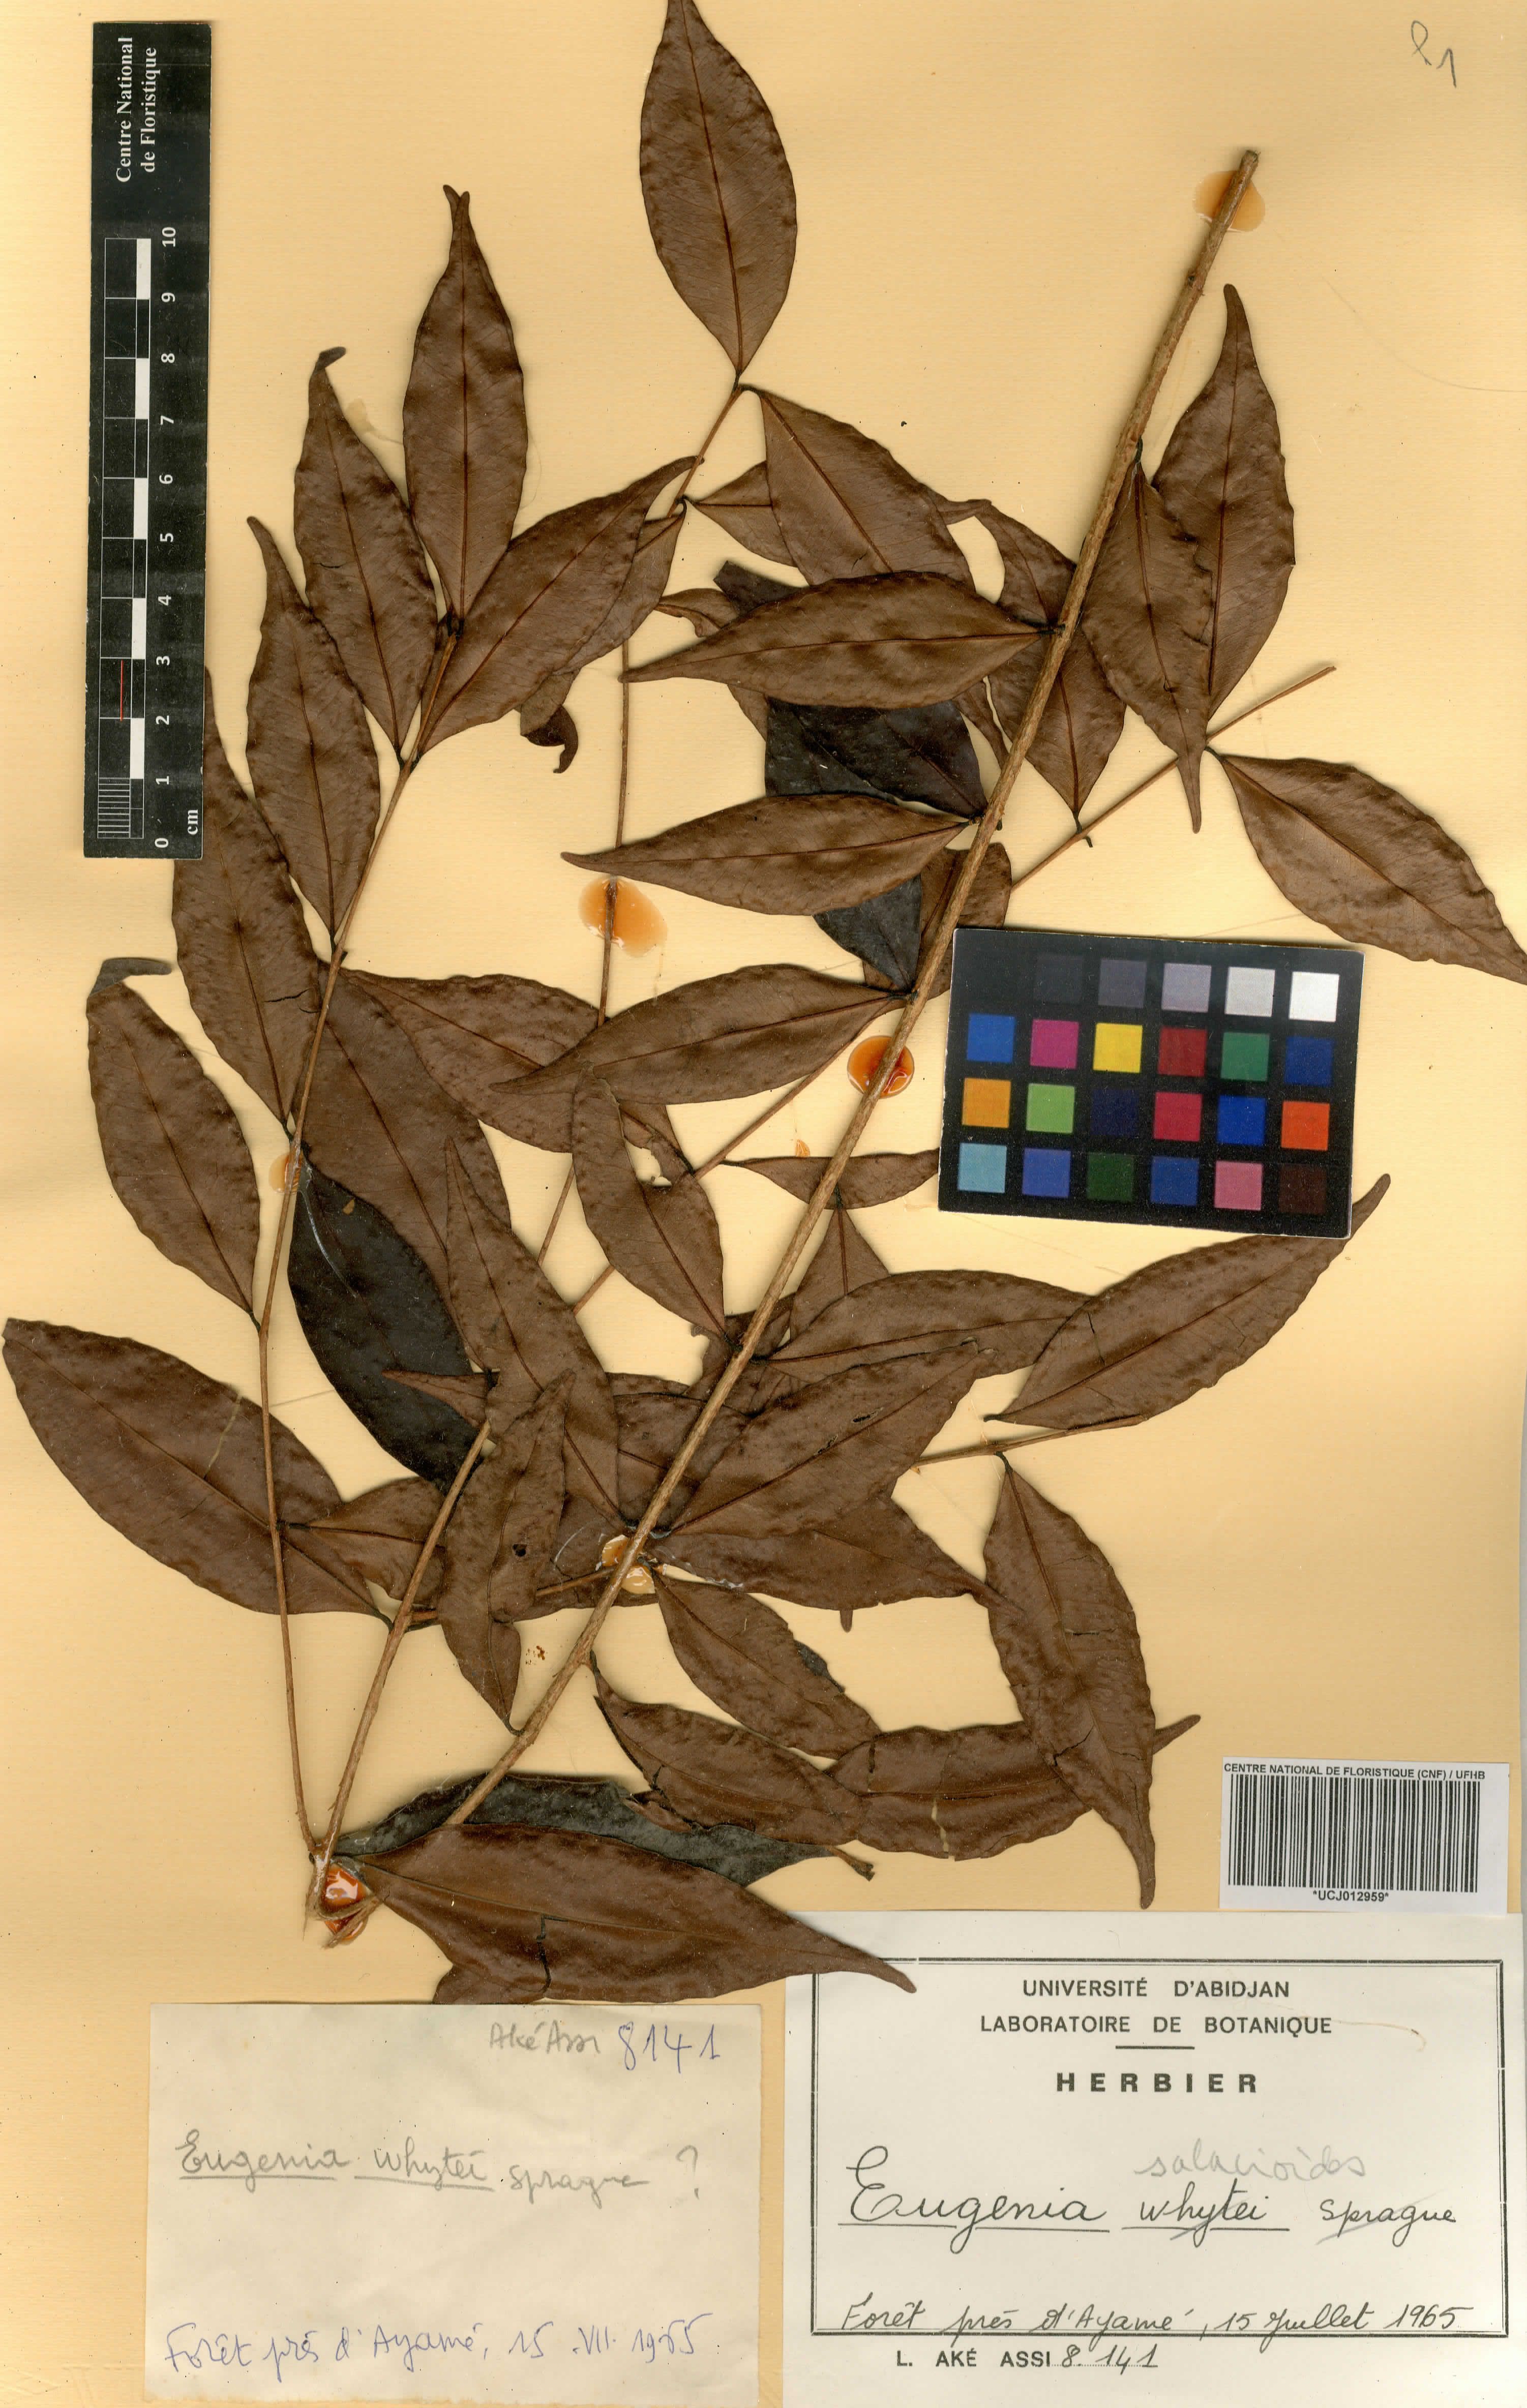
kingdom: Plantae
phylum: Tracheophyta
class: Magnoliopsida
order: Myrtales
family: Myrtaceae
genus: Eugenia
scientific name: Eugenia salacioides
